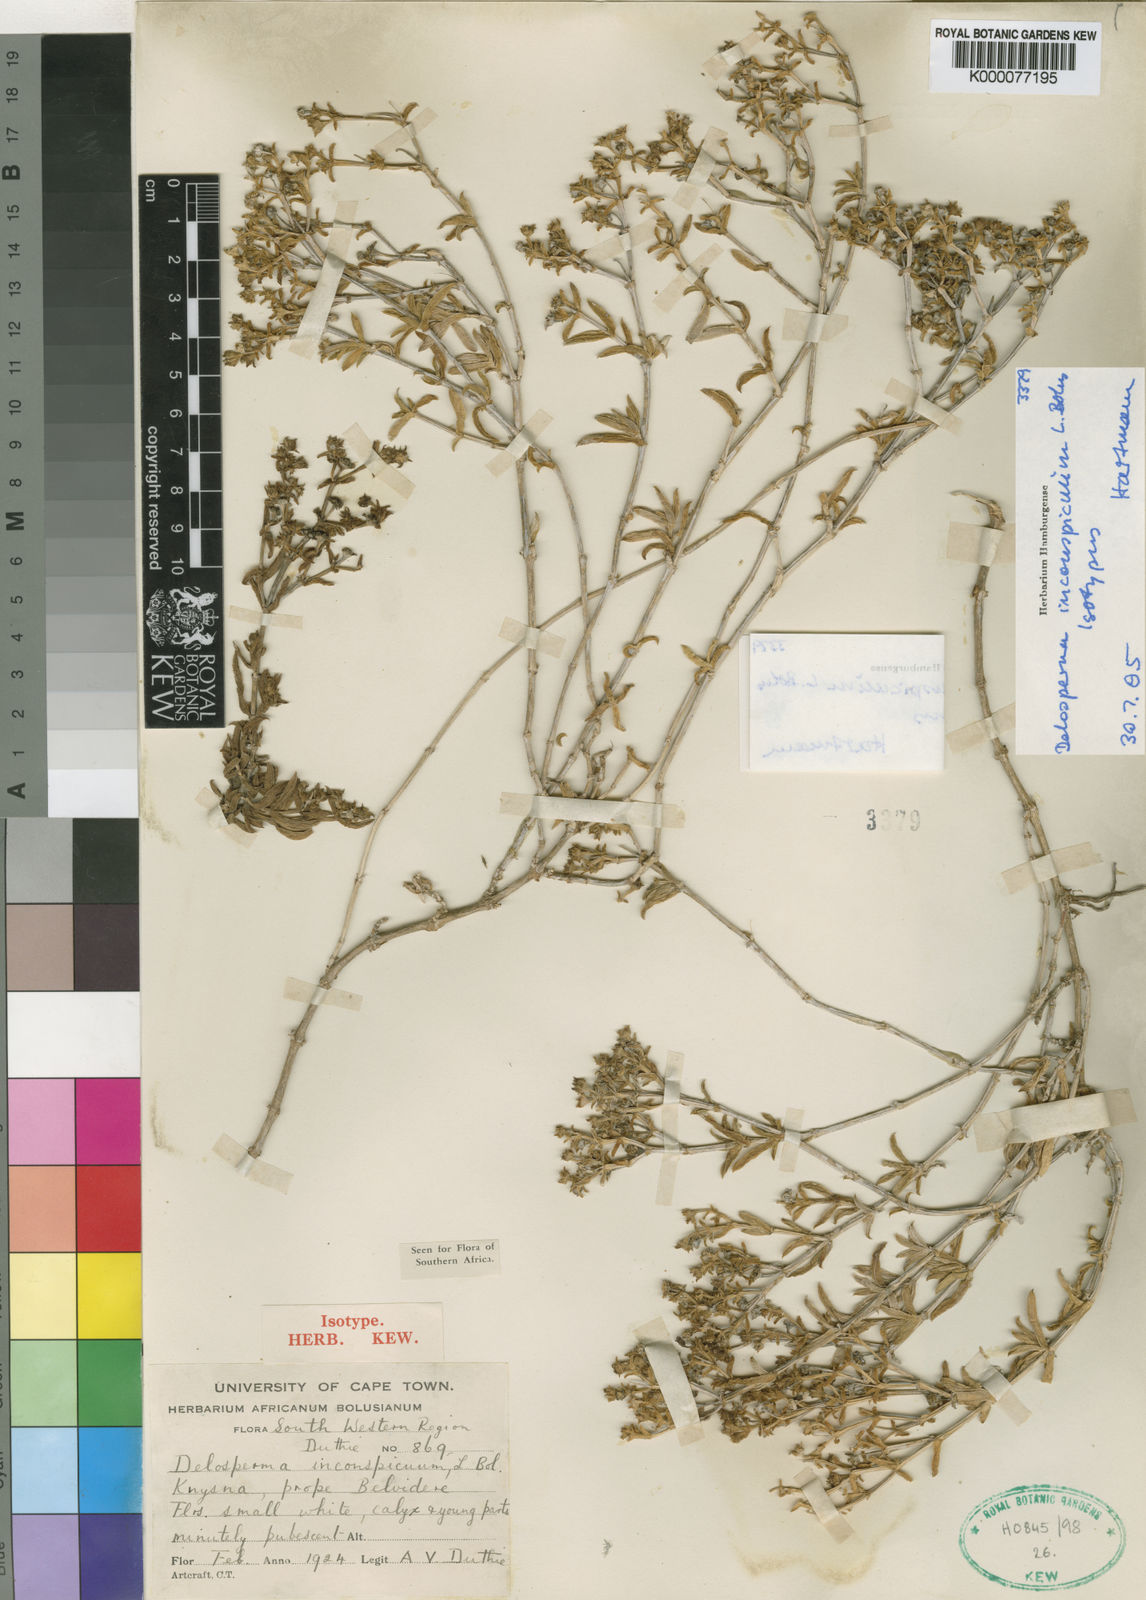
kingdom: Plantae
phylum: Tracheophyta
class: Magnoliopsida
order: Caryophyllales
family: Aizoaceae
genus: Delosperma
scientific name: Delosperma inconspicuum
